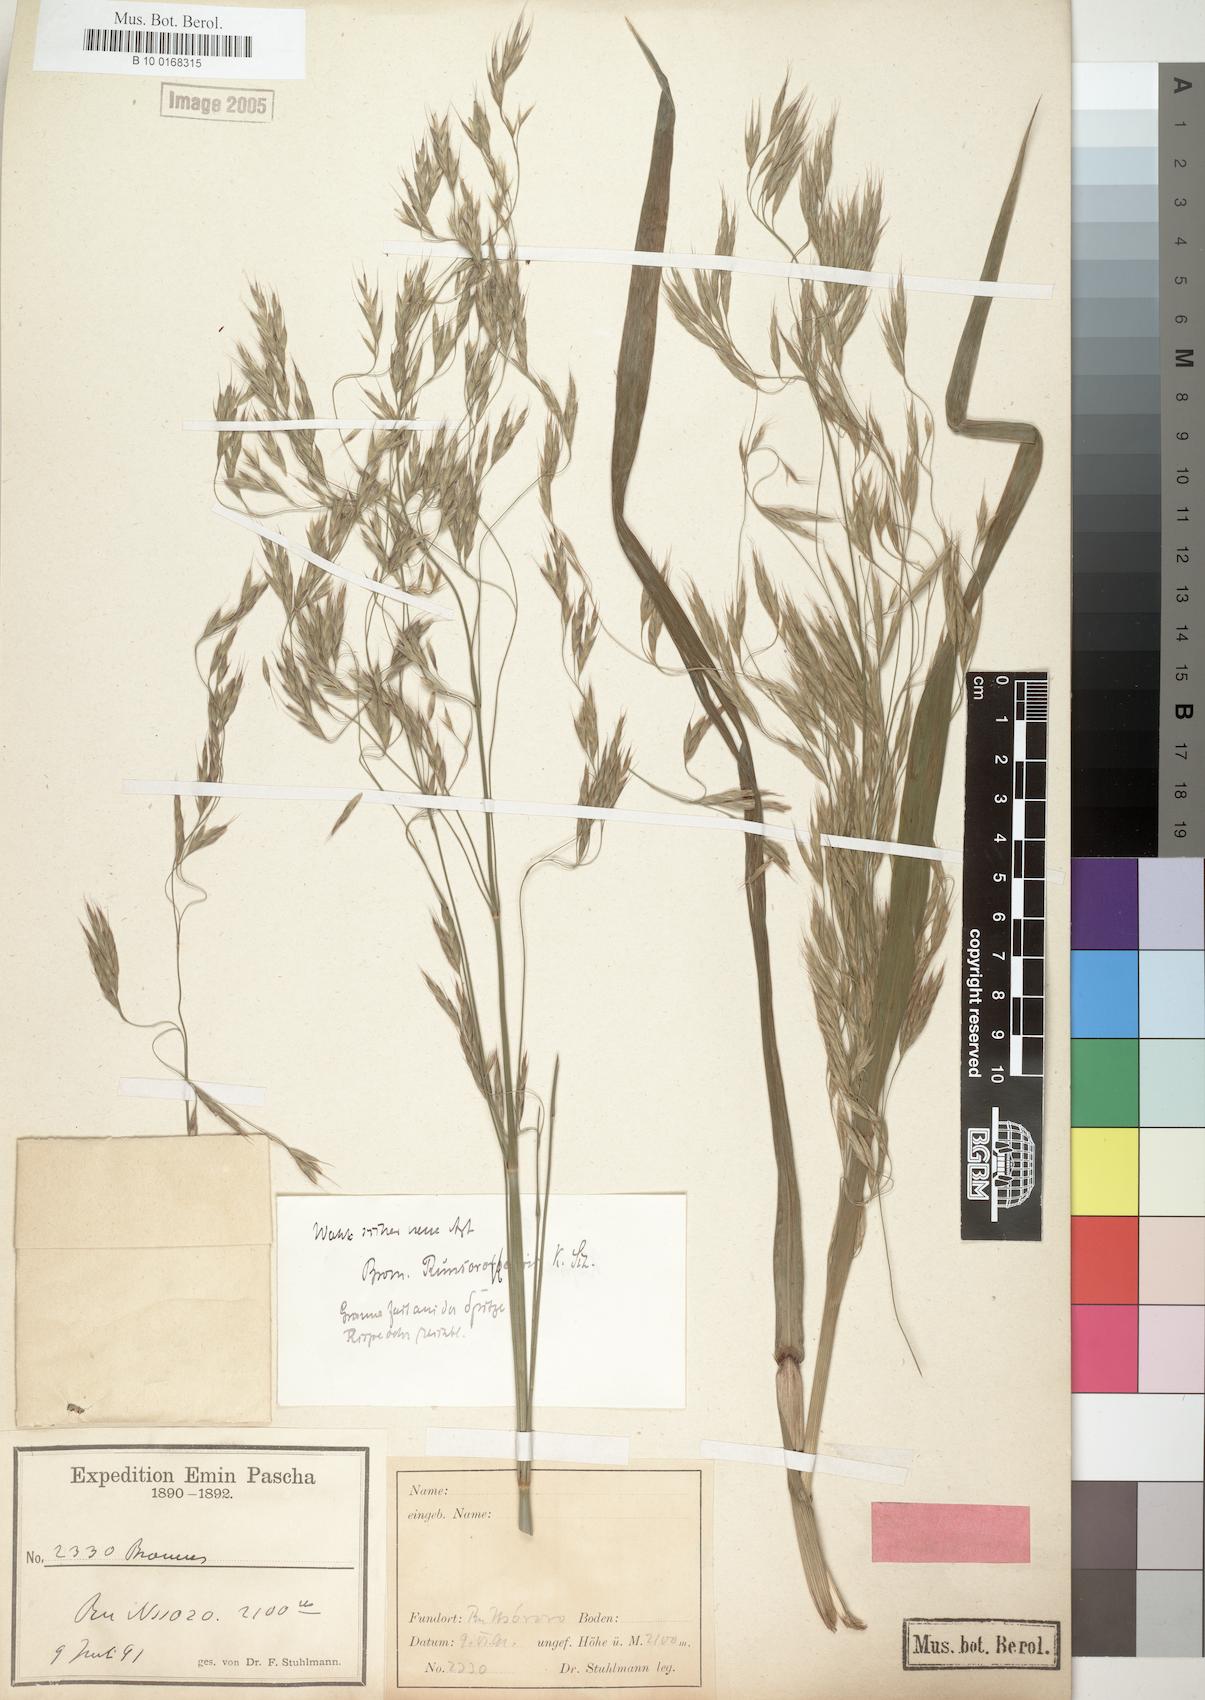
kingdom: Plantae
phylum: Tracheophyta
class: Liliopsida
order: Poales
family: Poaceae
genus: Bromus
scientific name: Bromus leptoclados
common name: Mountain bromegrass
